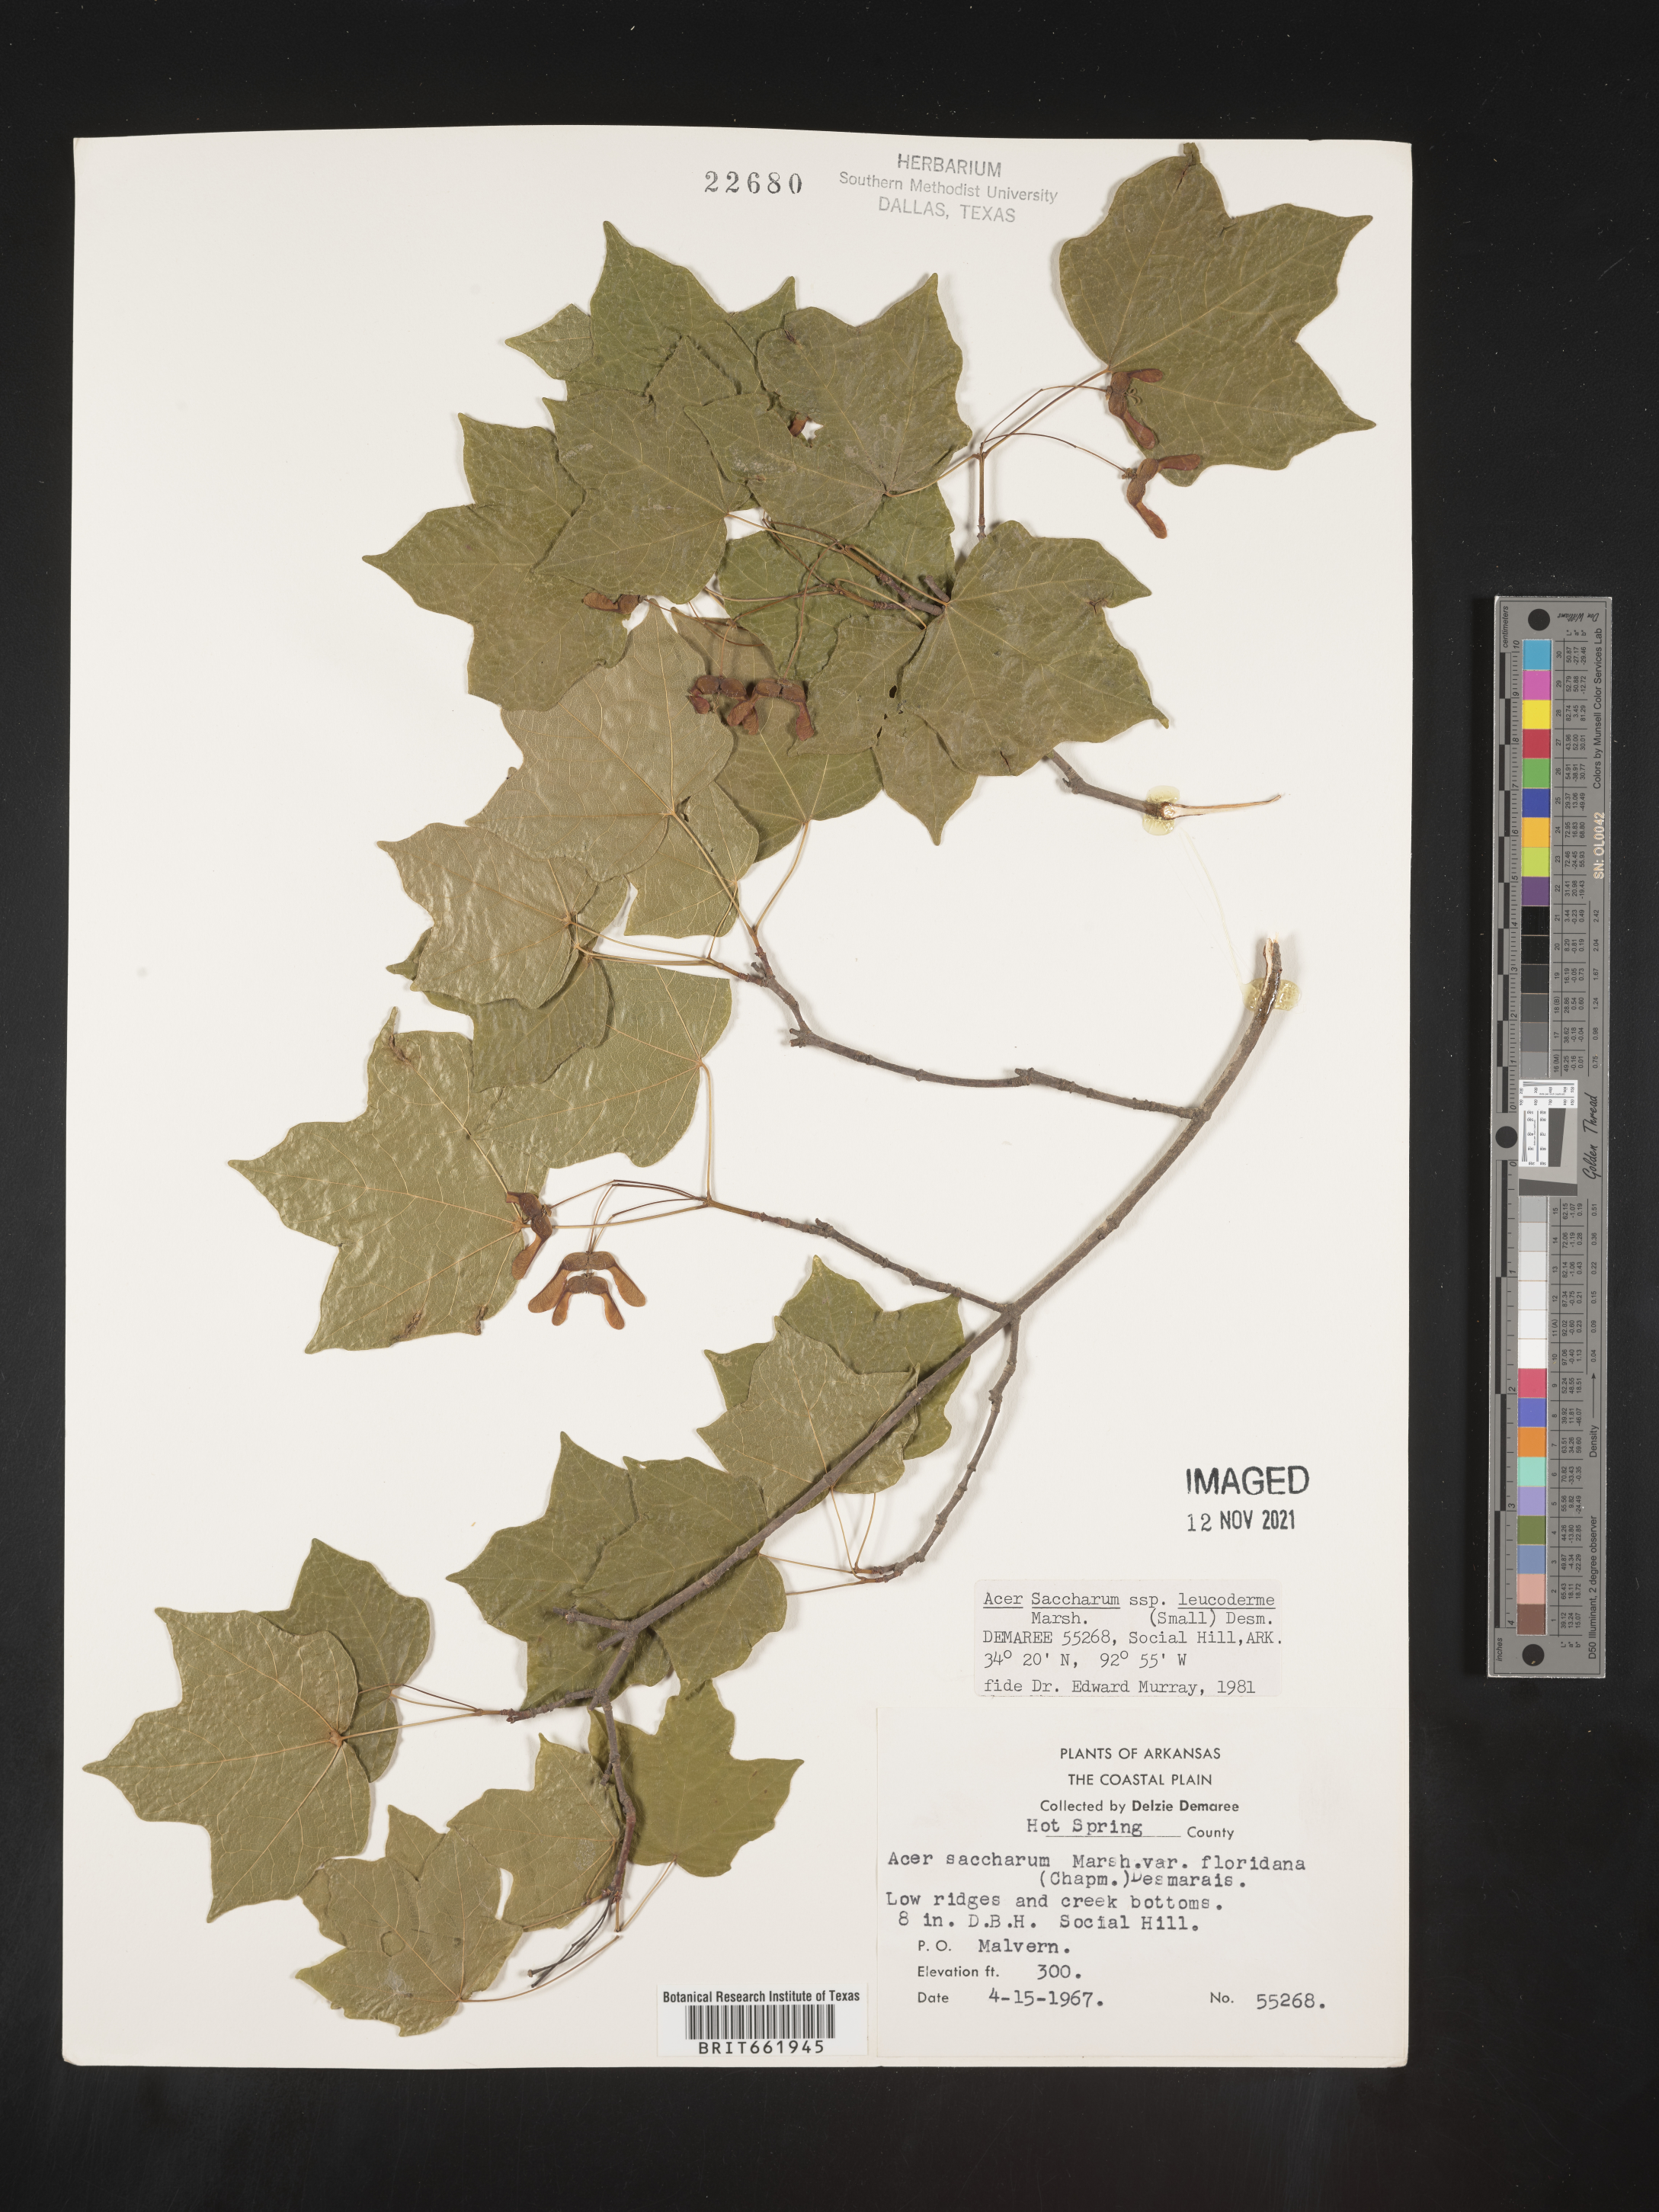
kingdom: Plantae
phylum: Tracheophyta
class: Magnoliopsida
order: Sapindales
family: Sapindaceae
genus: Acer
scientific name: Acer leucoderme
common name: Chalk maple
